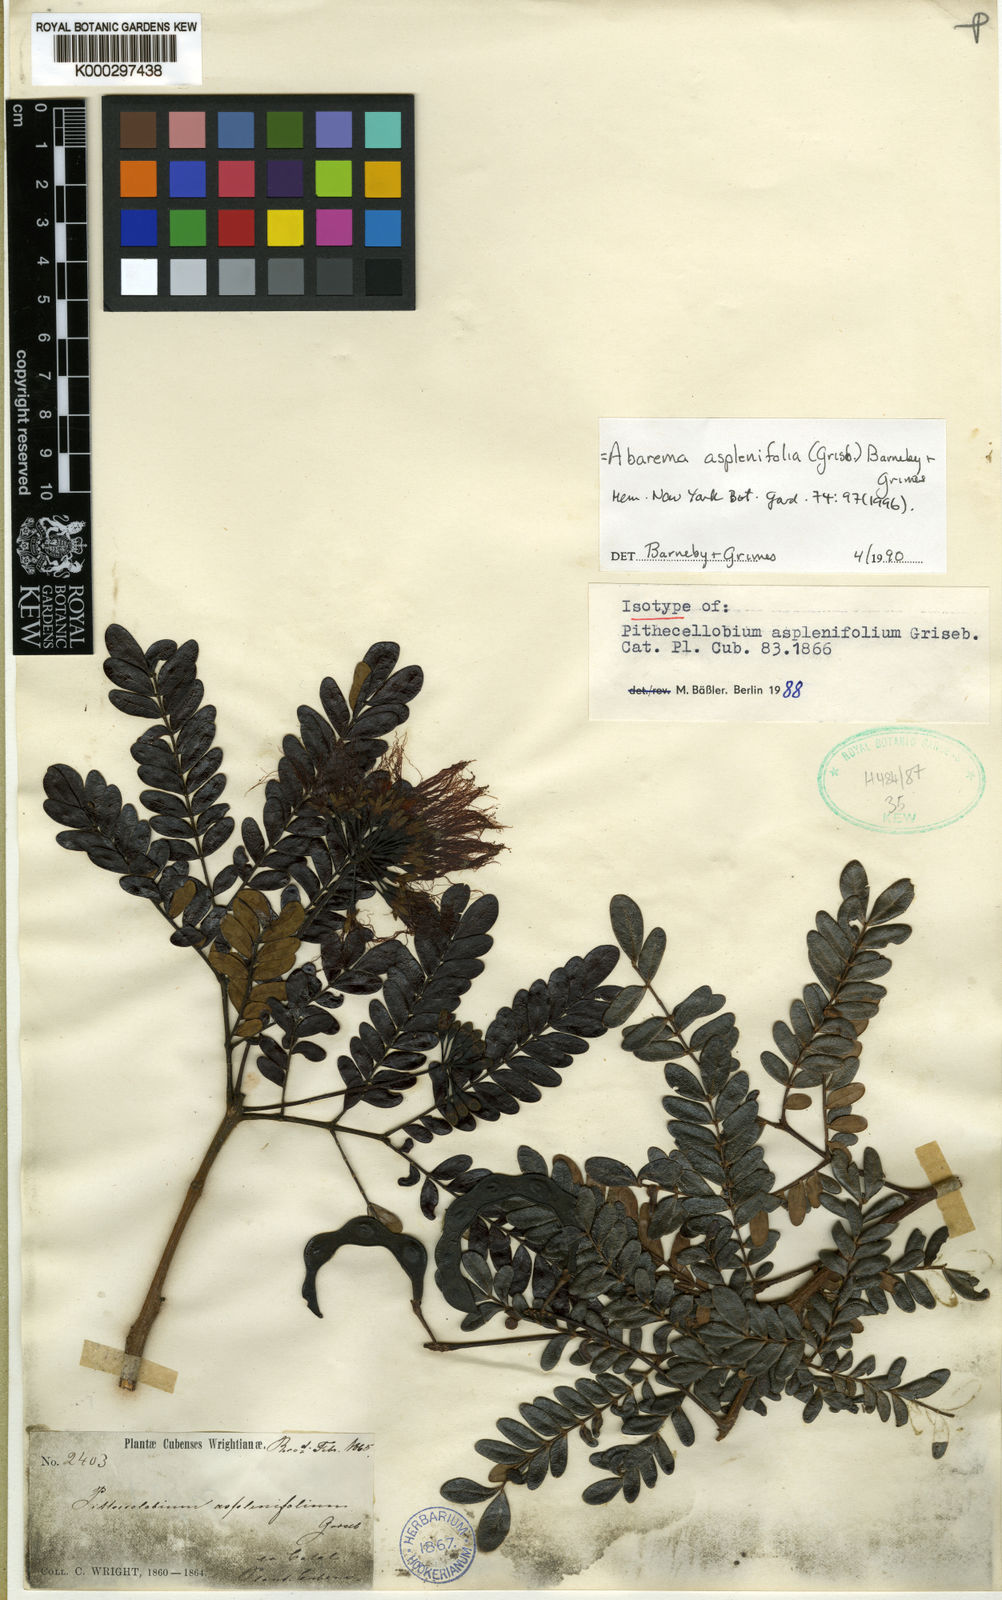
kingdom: Plantae
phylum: Tracheophyta
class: Magnoliopsida
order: Fabales
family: Fabaceae
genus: Jupunba
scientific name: Jupunba asplenifolia
